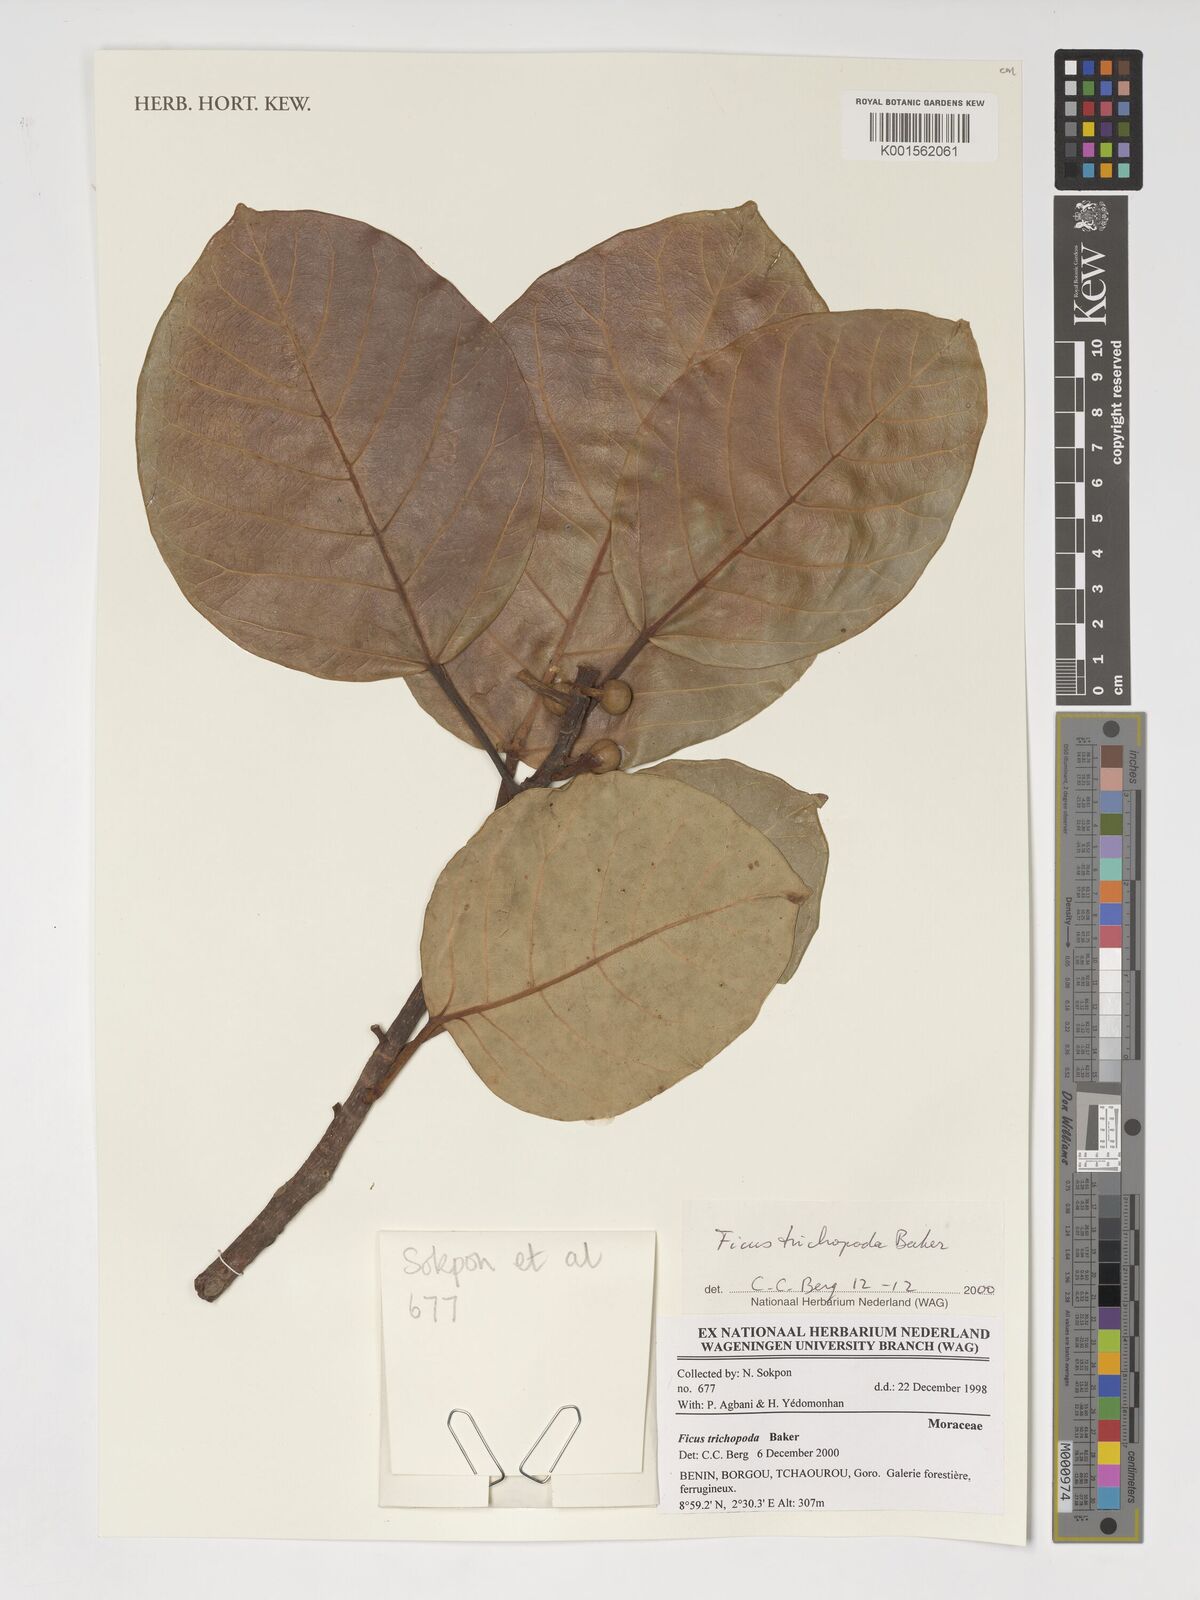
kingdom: Plantae
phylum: Tracheophyta
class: Magnoliopsida
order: Rosales
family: Moraceae
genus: Ficus
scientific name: Ficus trichopoda
